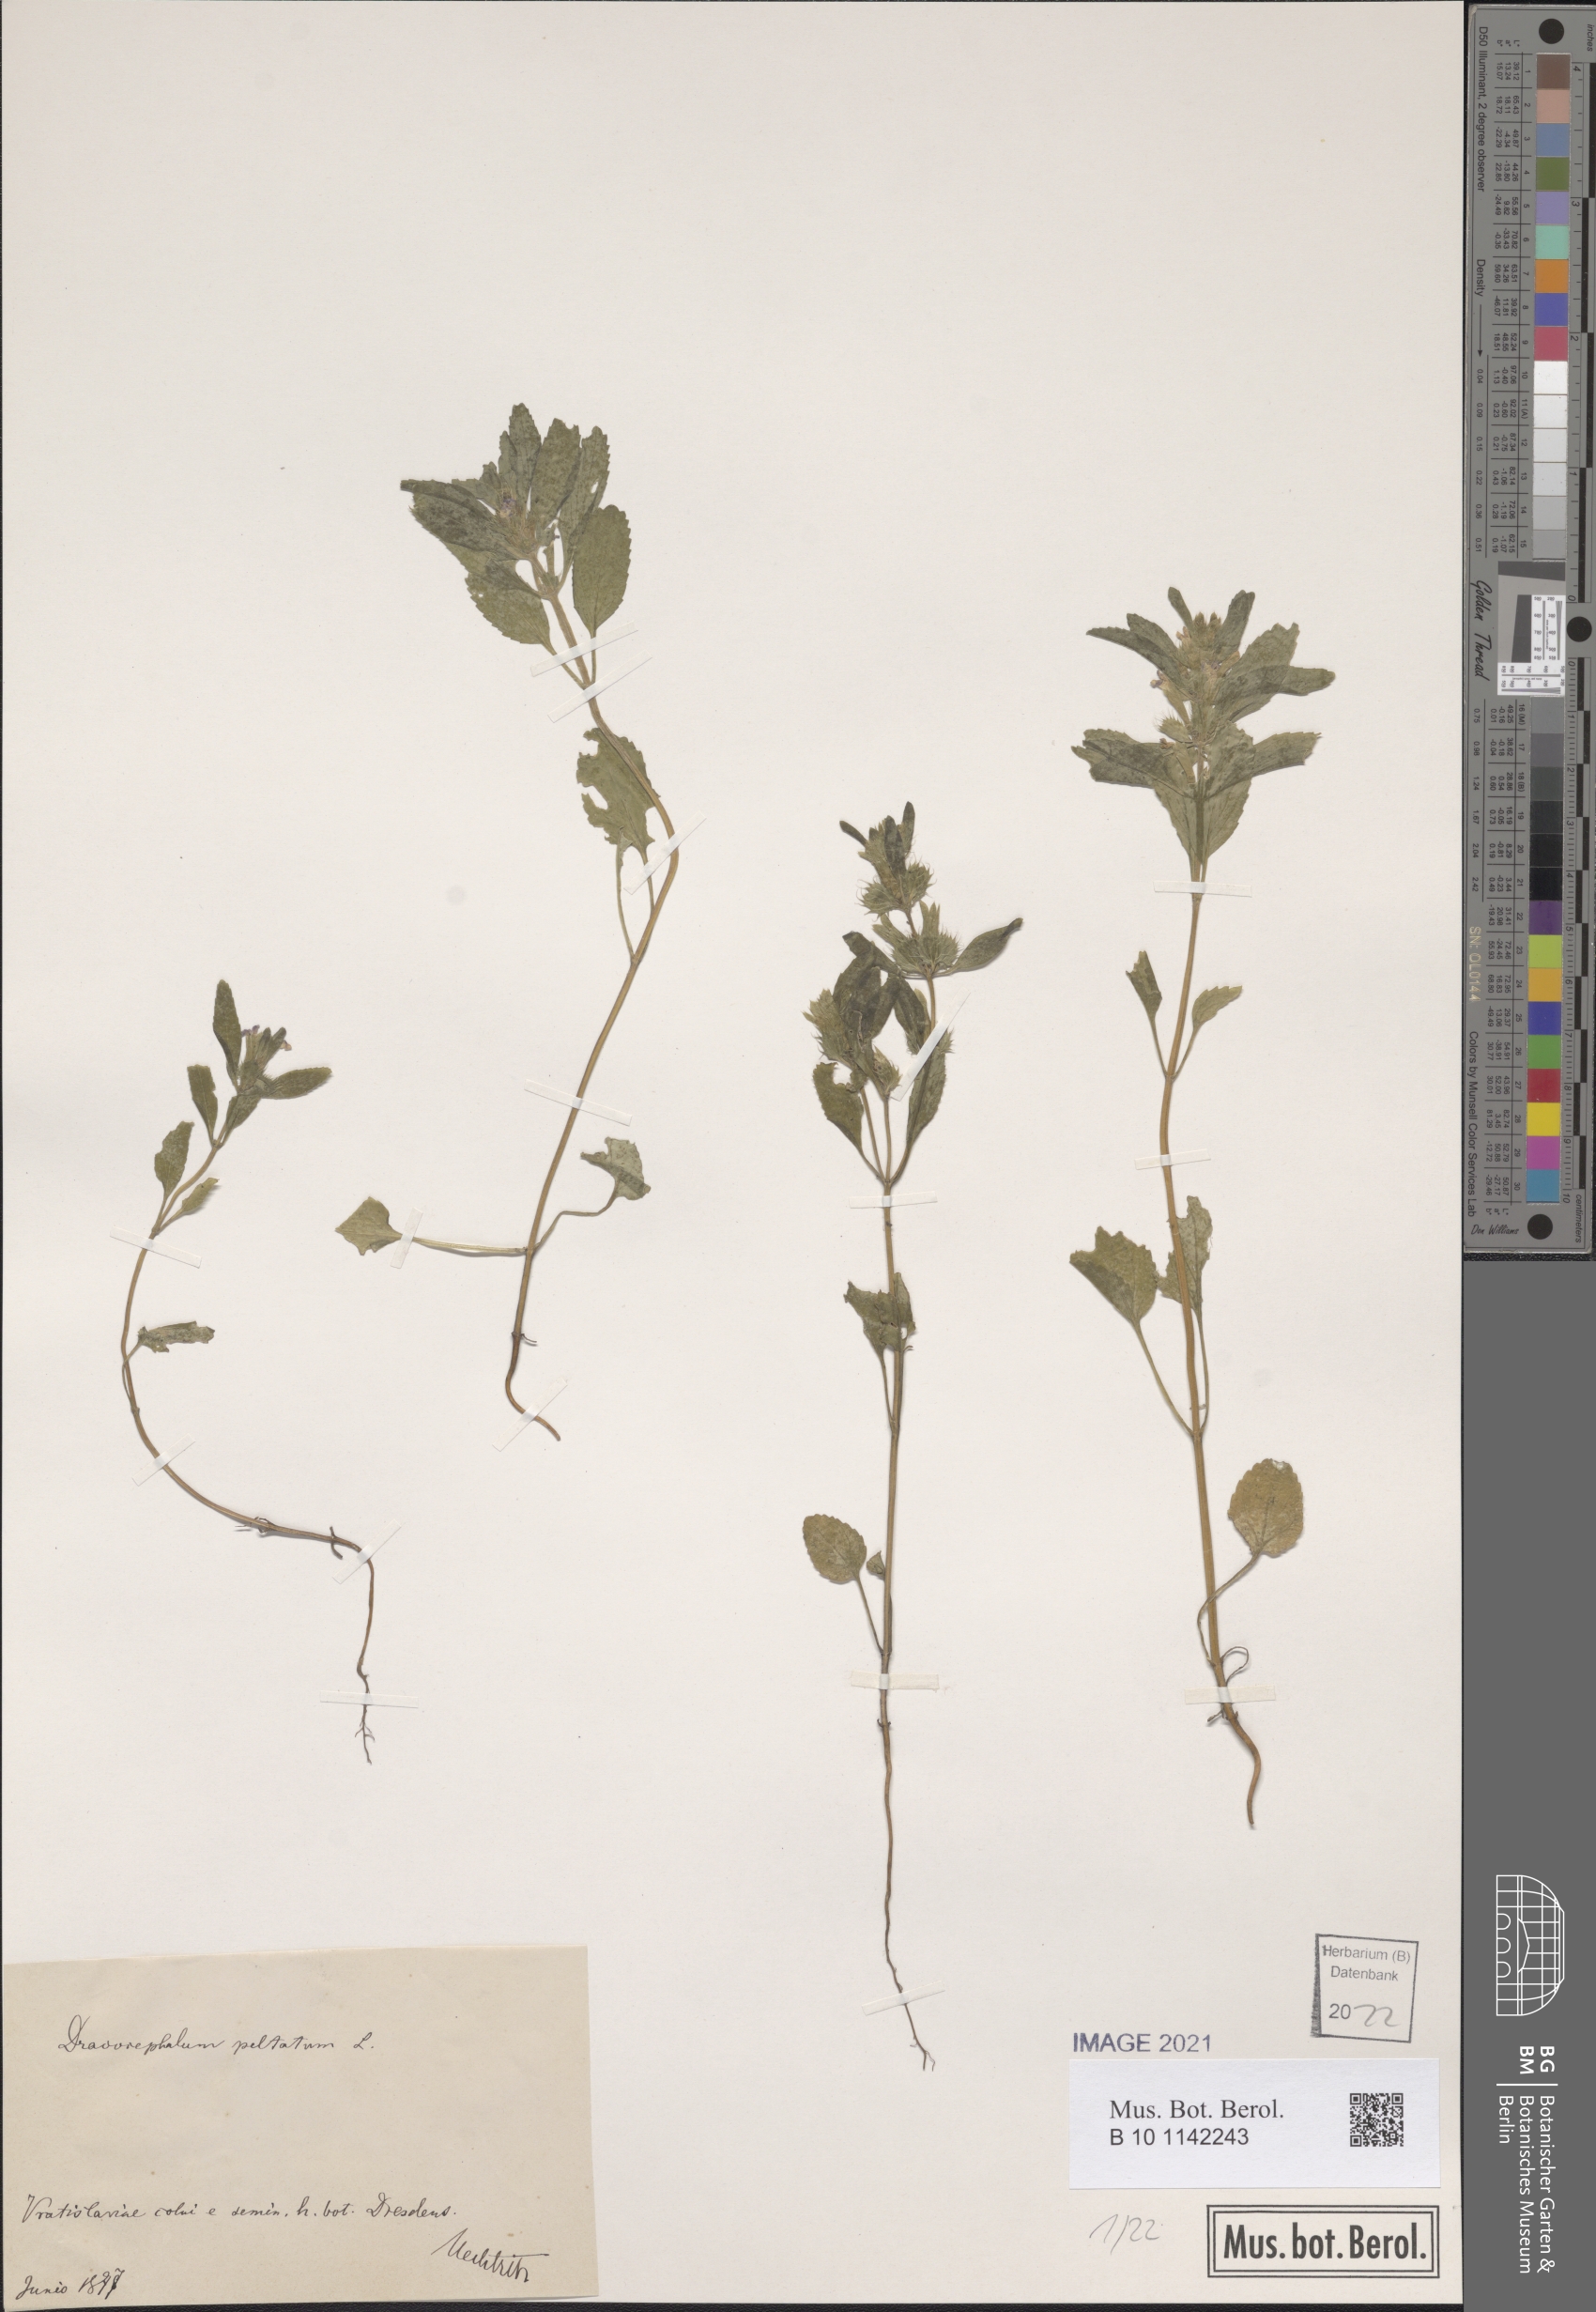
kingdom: Plantae
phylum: Tracheophyta
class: Magnoliopsida
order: Lamiales
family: Lamiaceae
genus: Lallemantia
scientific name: Lallemantia peltata
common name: Lion's heart
